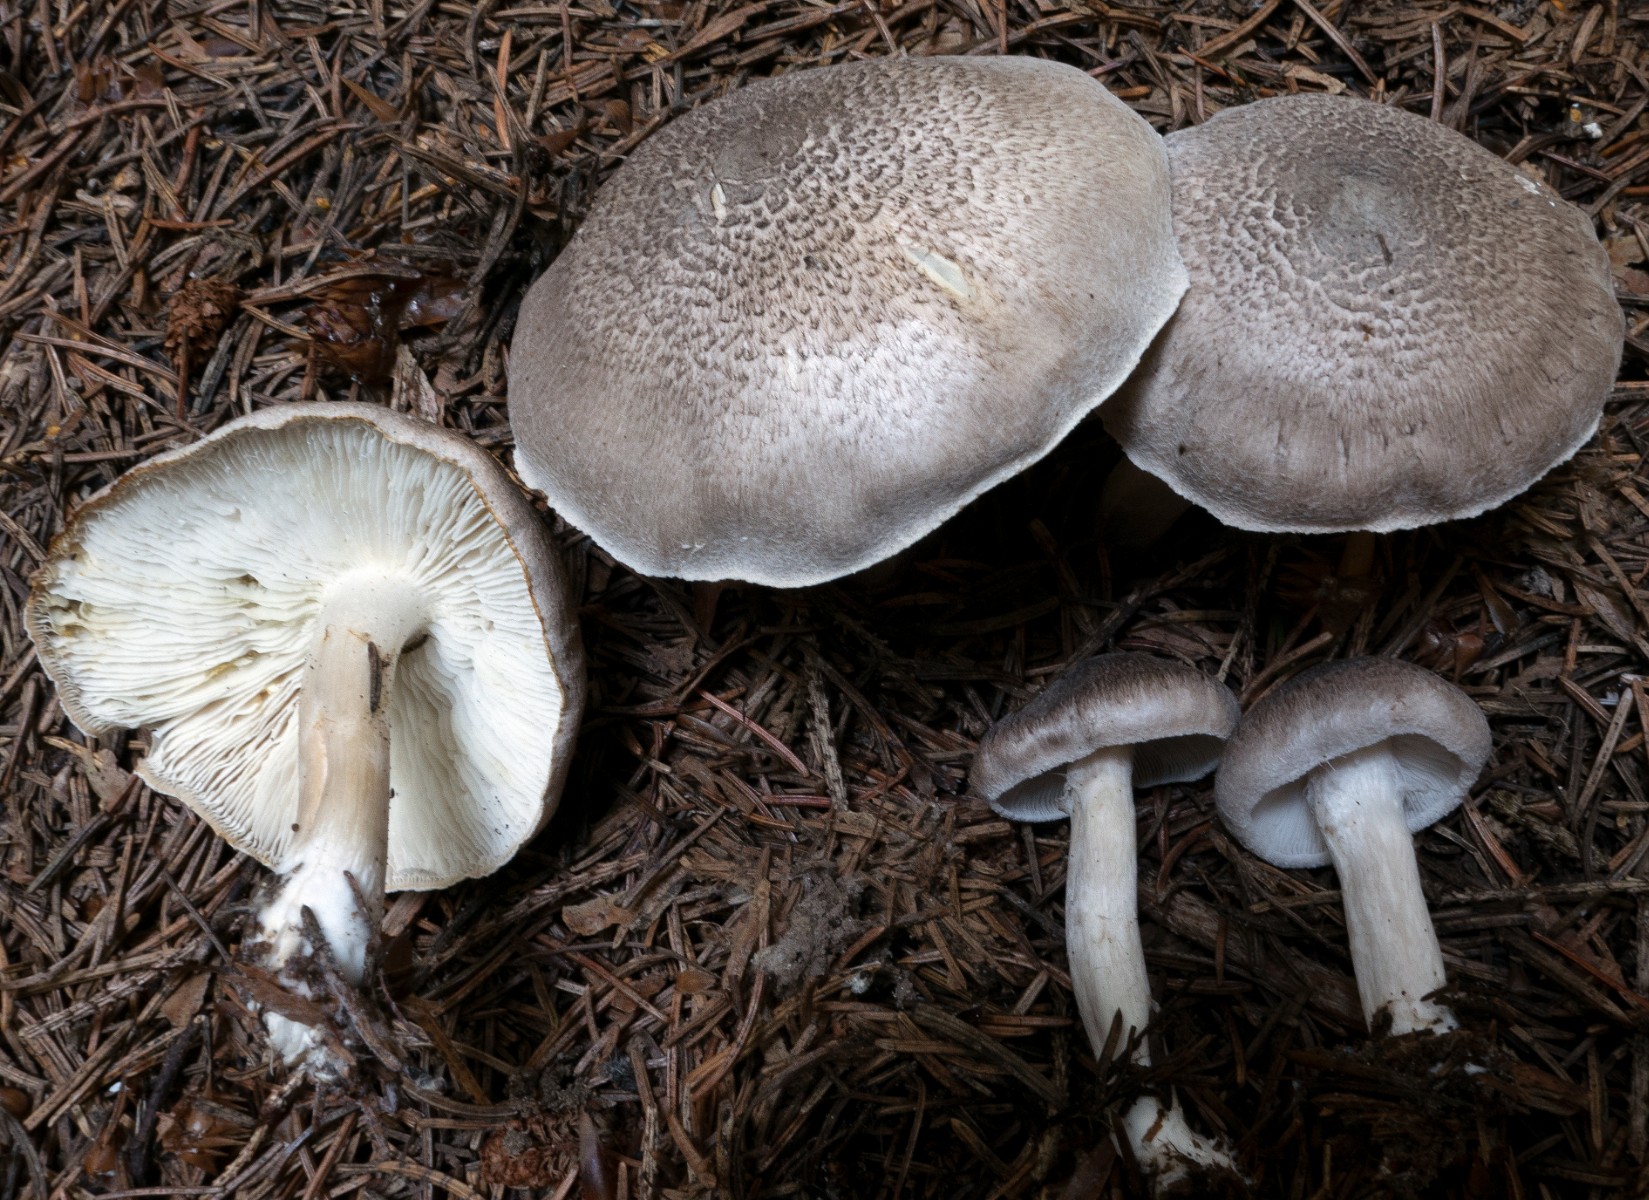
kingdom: Fungi
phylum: Basidiomycota
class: Agaricomycetes
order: Agaricales
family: Tricholomataceae
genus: Tricholoma
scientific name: Tricholoma argyraceum
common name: slør-ridderhat
